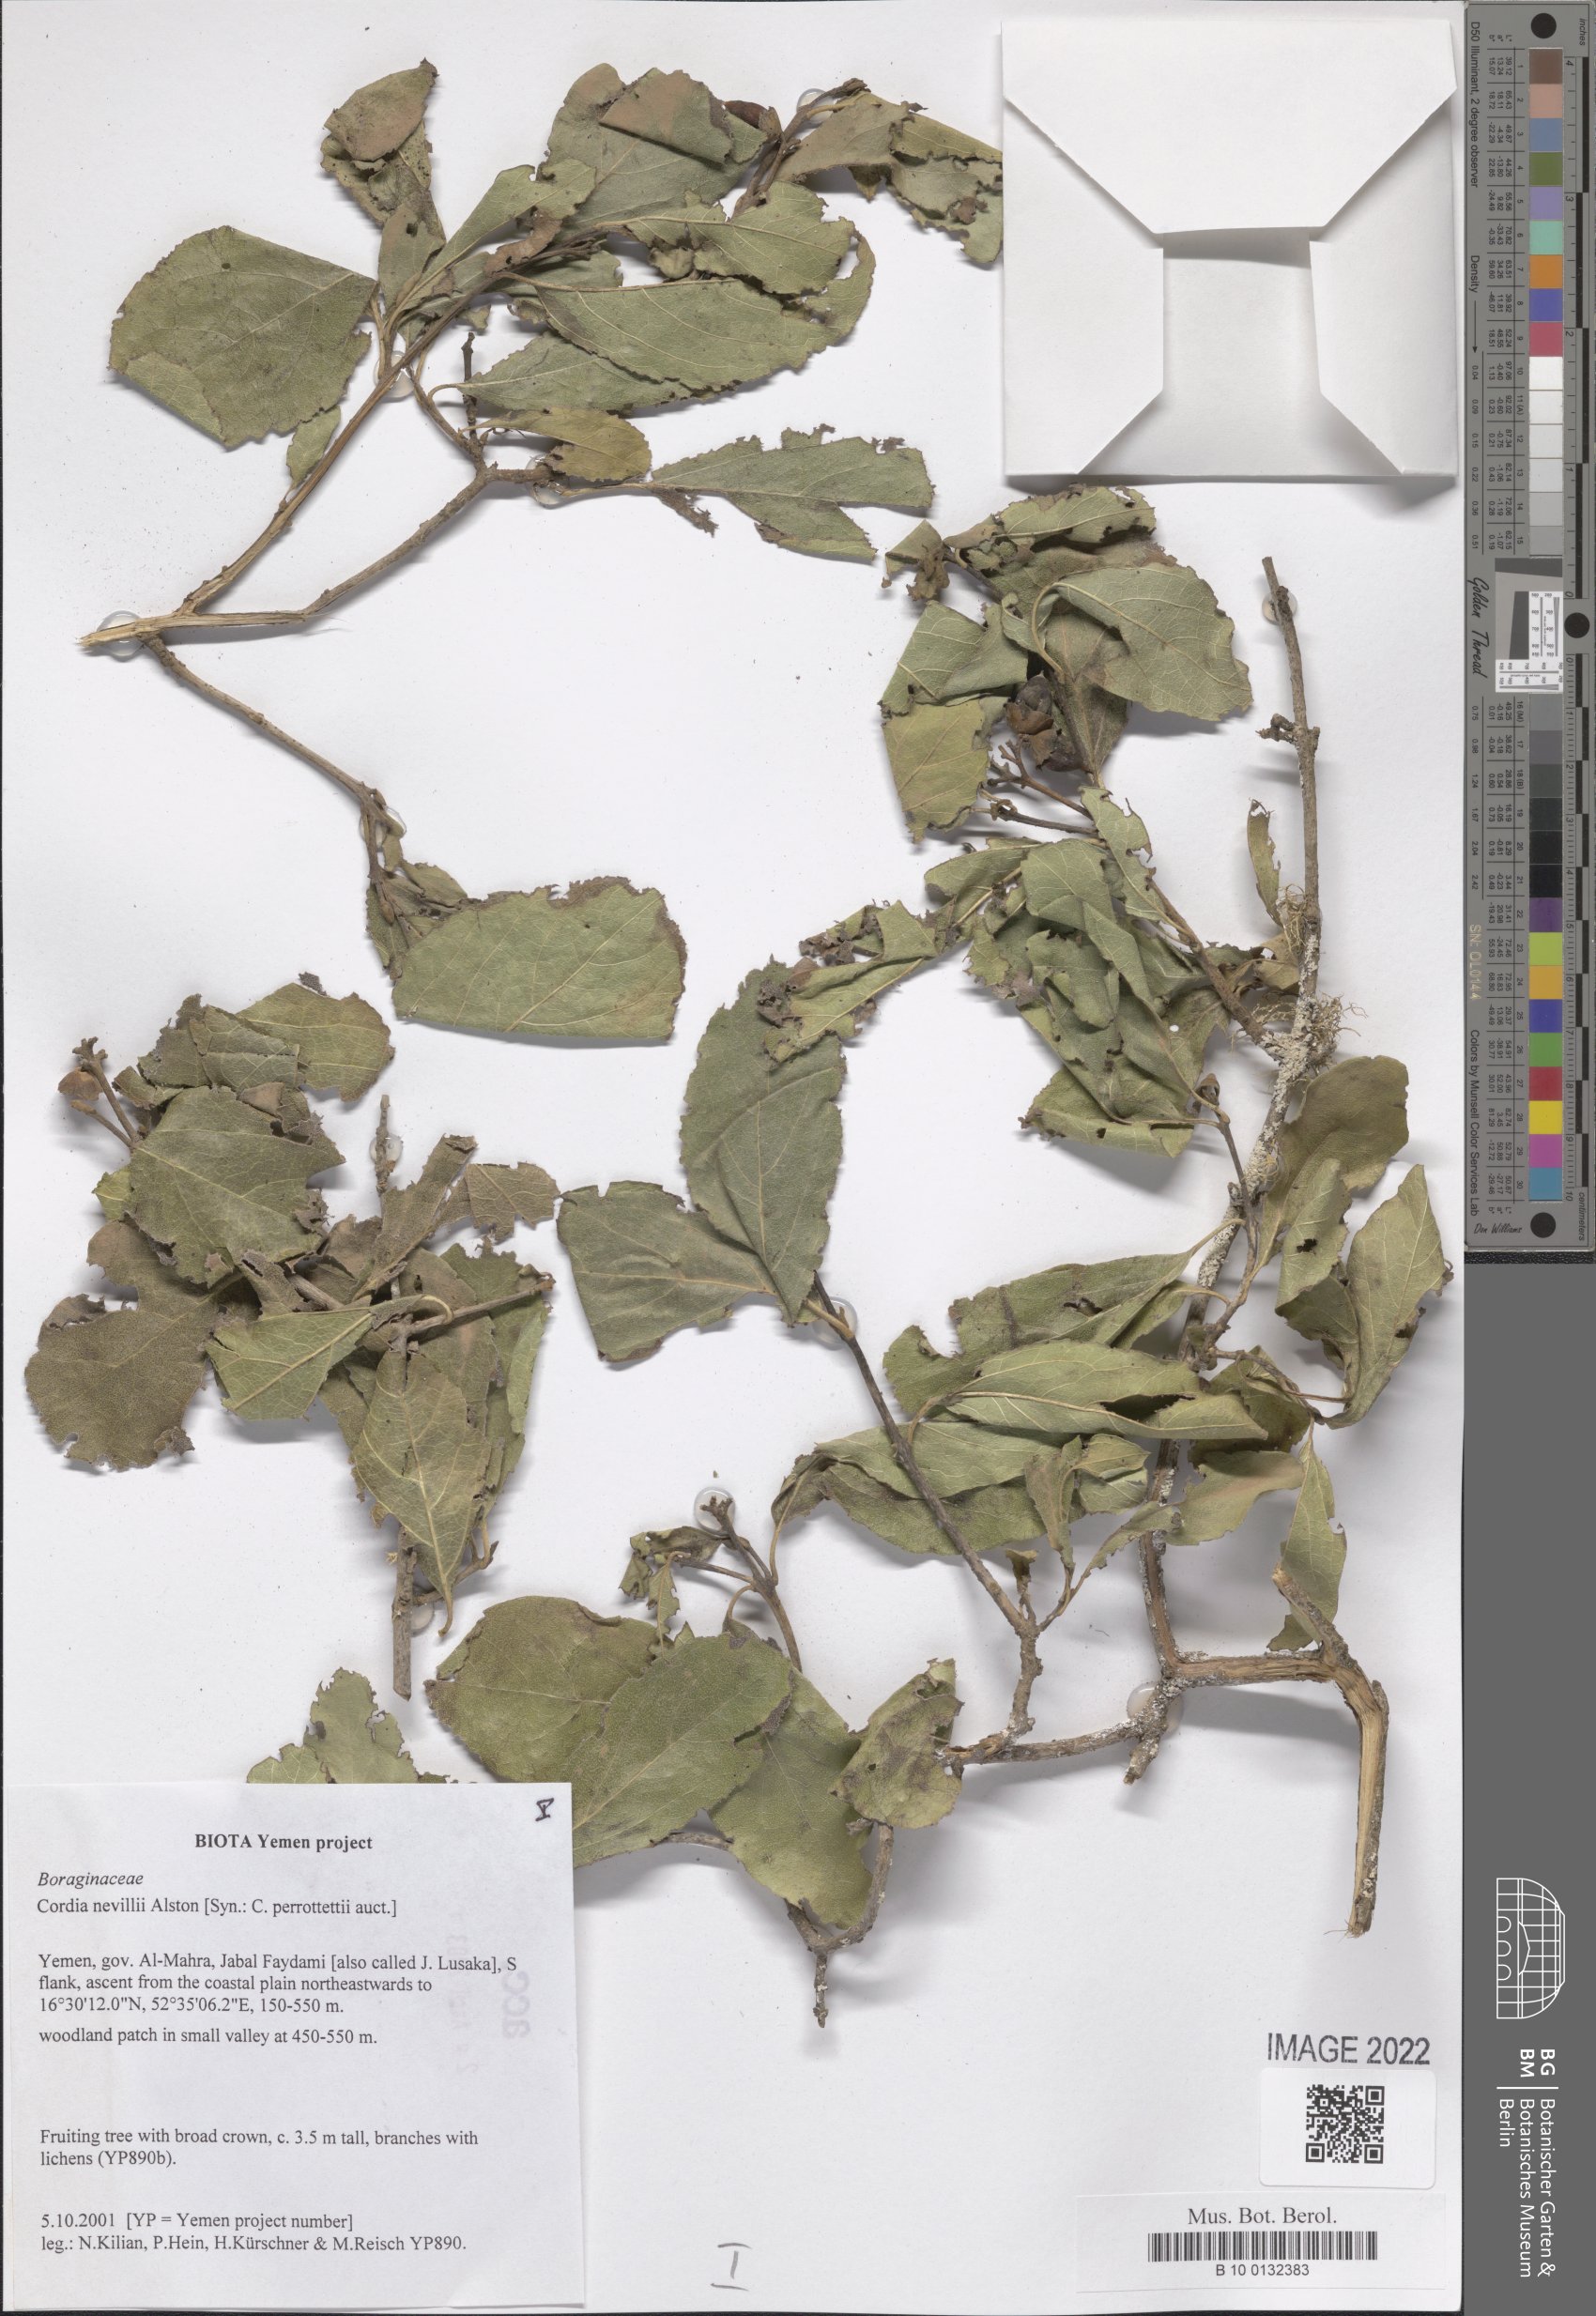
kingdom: Plantae
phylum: Tracheophyta
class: Magnoliopsida
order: Boraginales
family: Cordiaceae
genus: Cordia
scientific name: Cordia quercifolia
